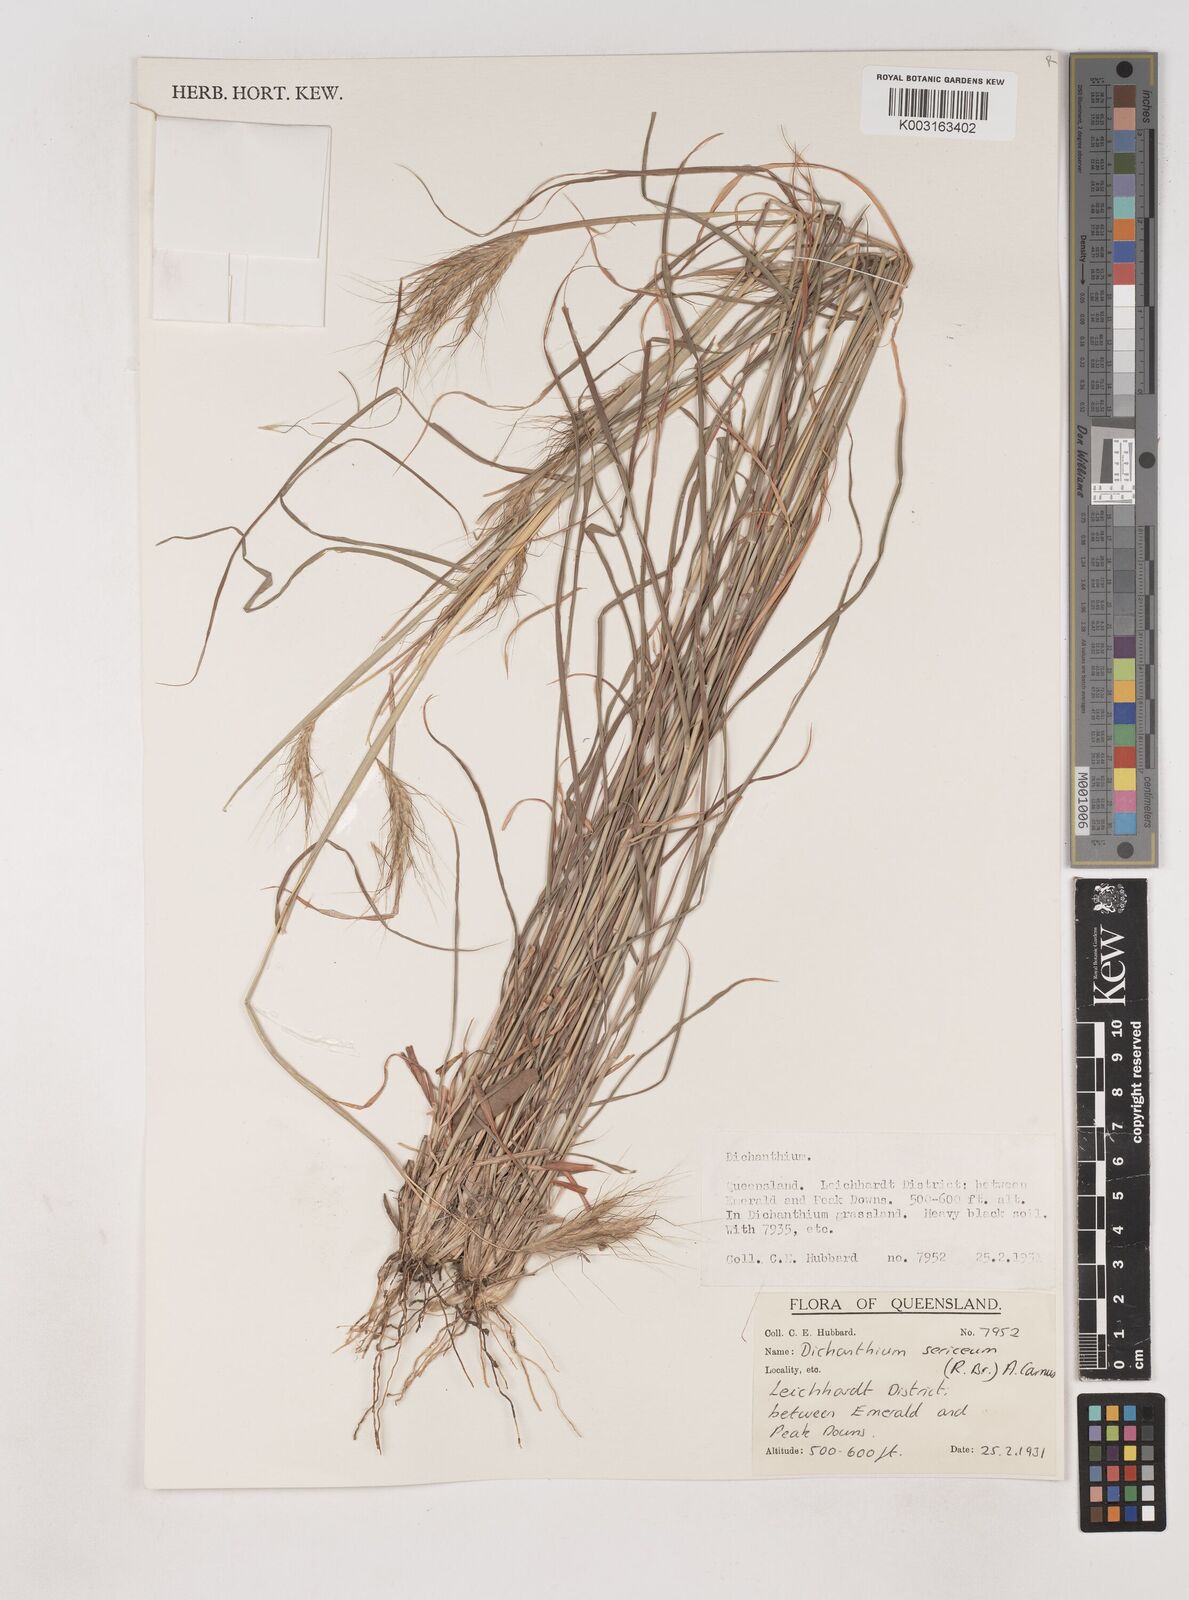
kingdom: Plantae
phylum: Tracheophyta
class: Liliopsida
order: Poales
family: Poaceae
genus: Dichanthium
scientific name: Dichanthium sericeum
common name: Silky bluestem
